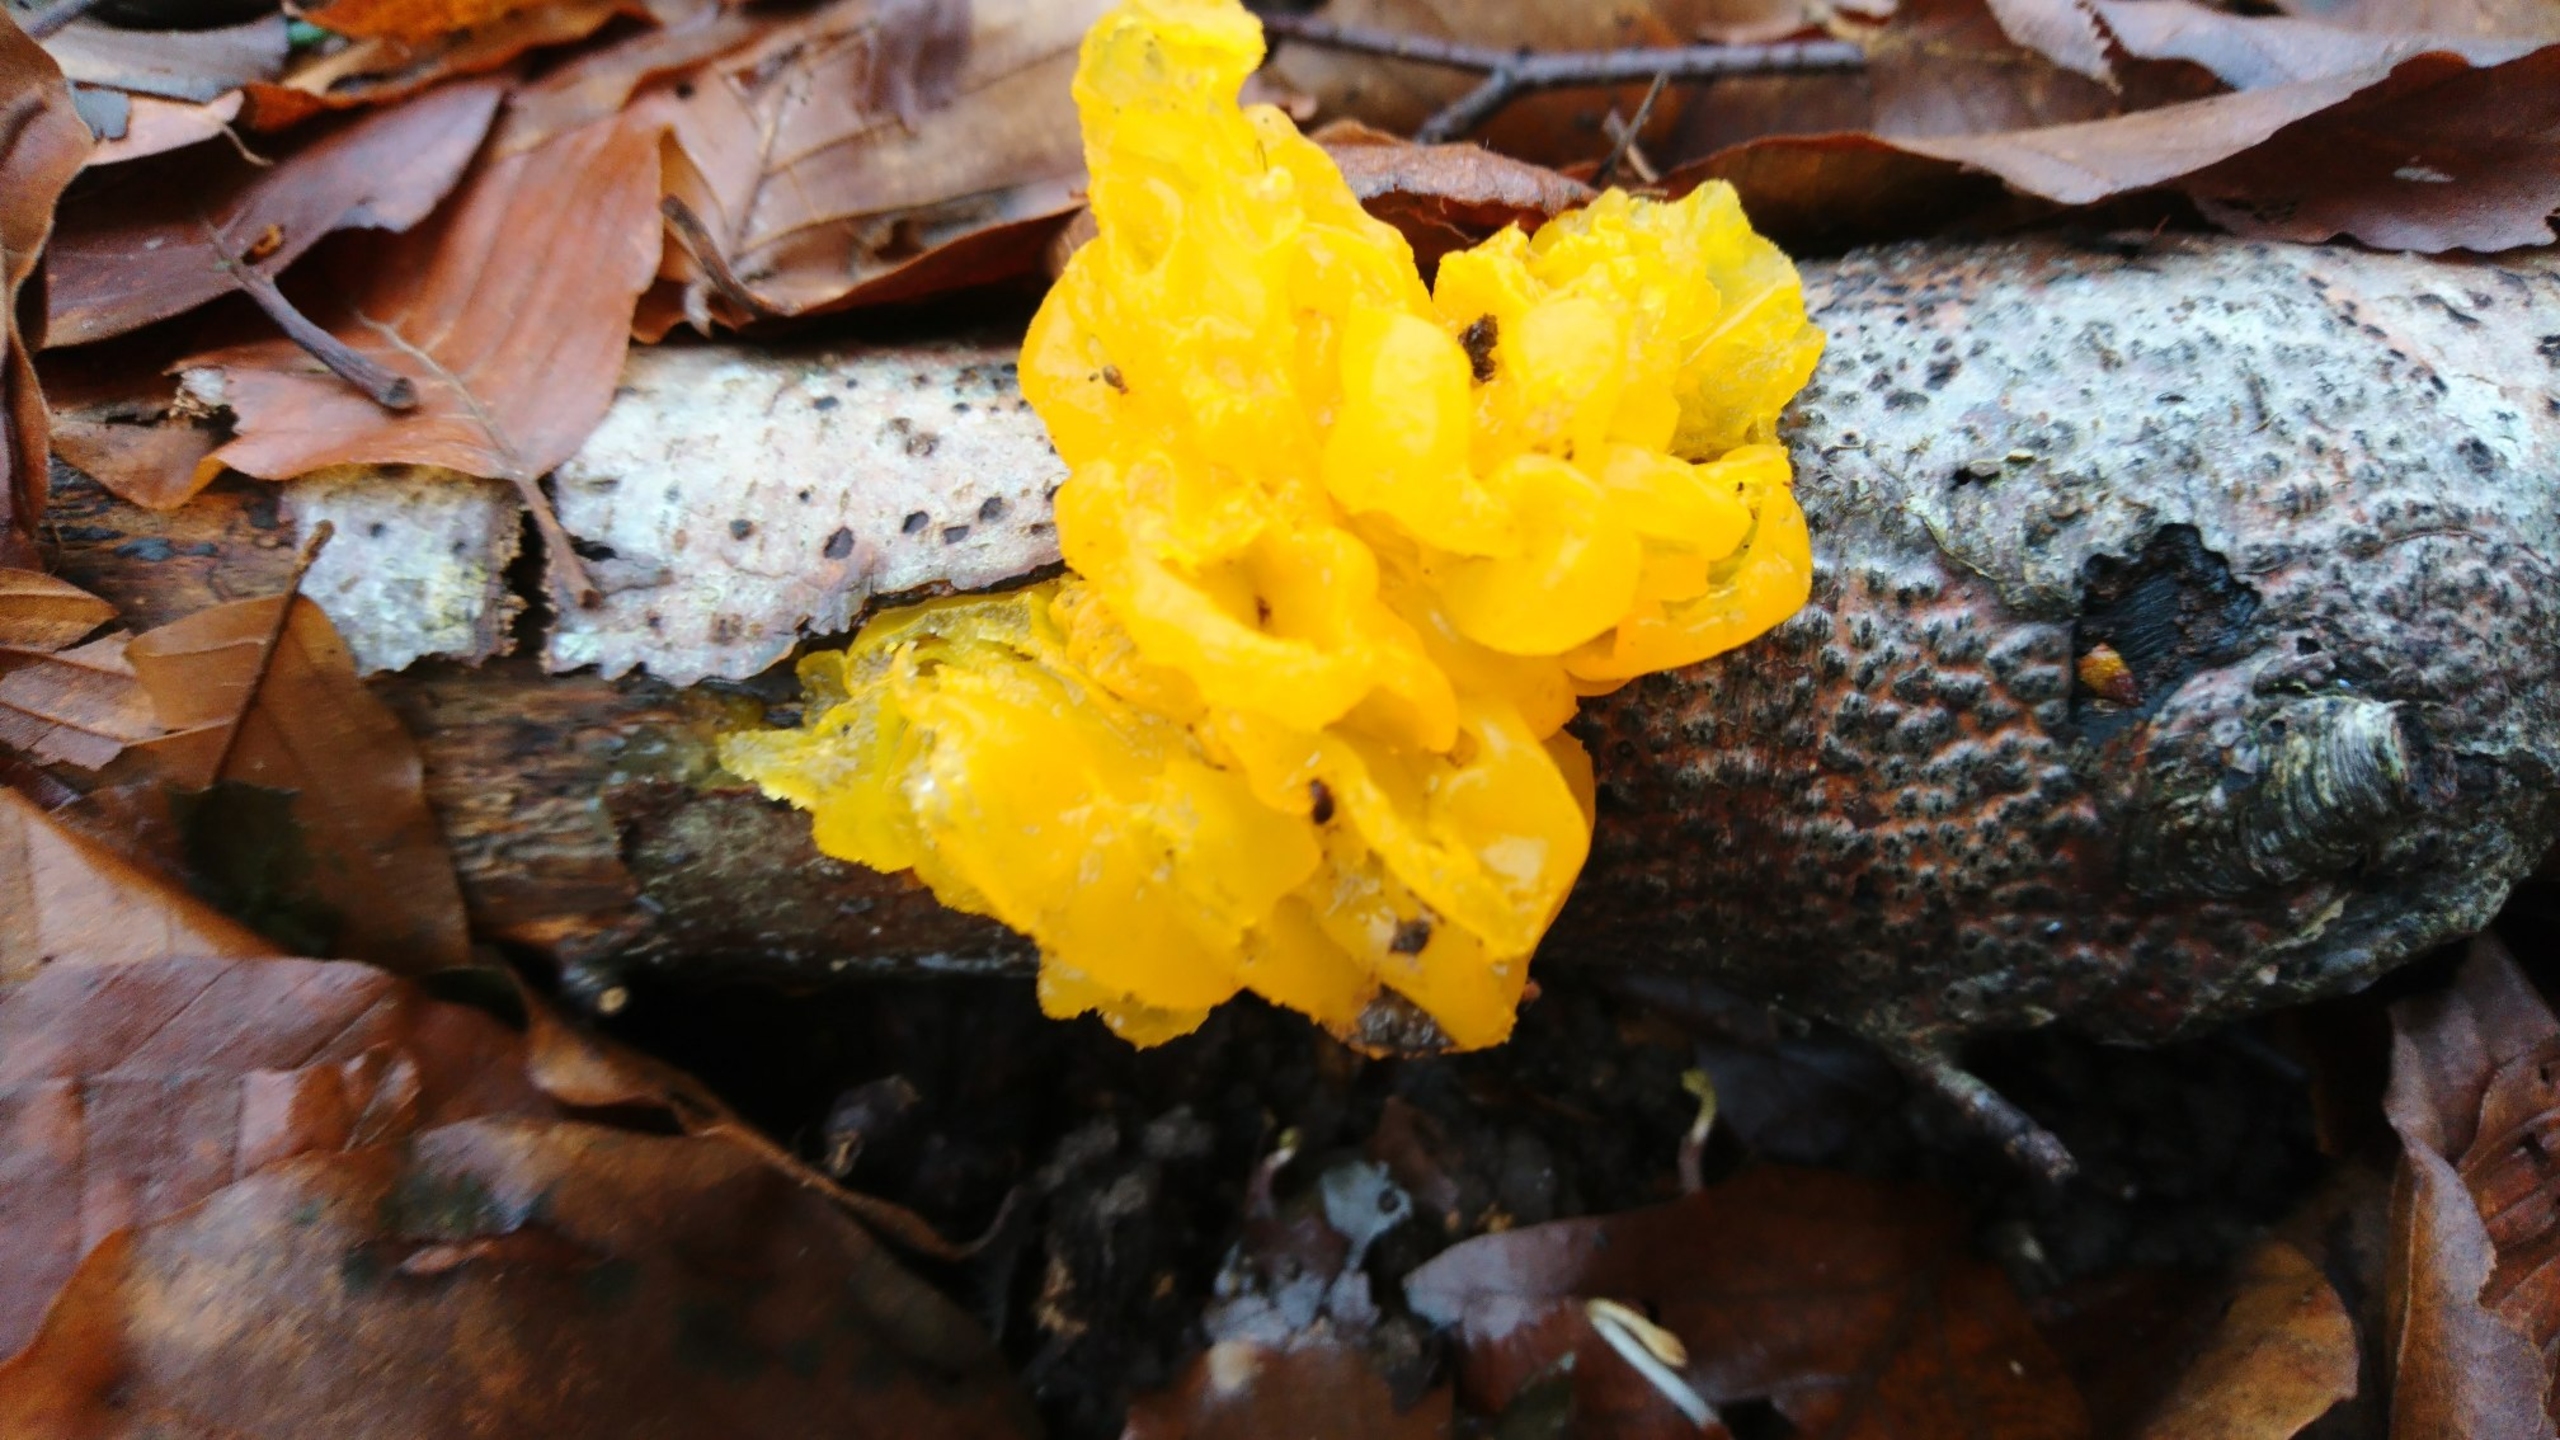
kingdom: Fungi
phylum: Basidiomycota
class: Tremellomycetes
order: Tremellales
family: Tremellaceae
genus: Tremella
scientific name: Tremella mesenterica
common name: Gul bævresvamp
